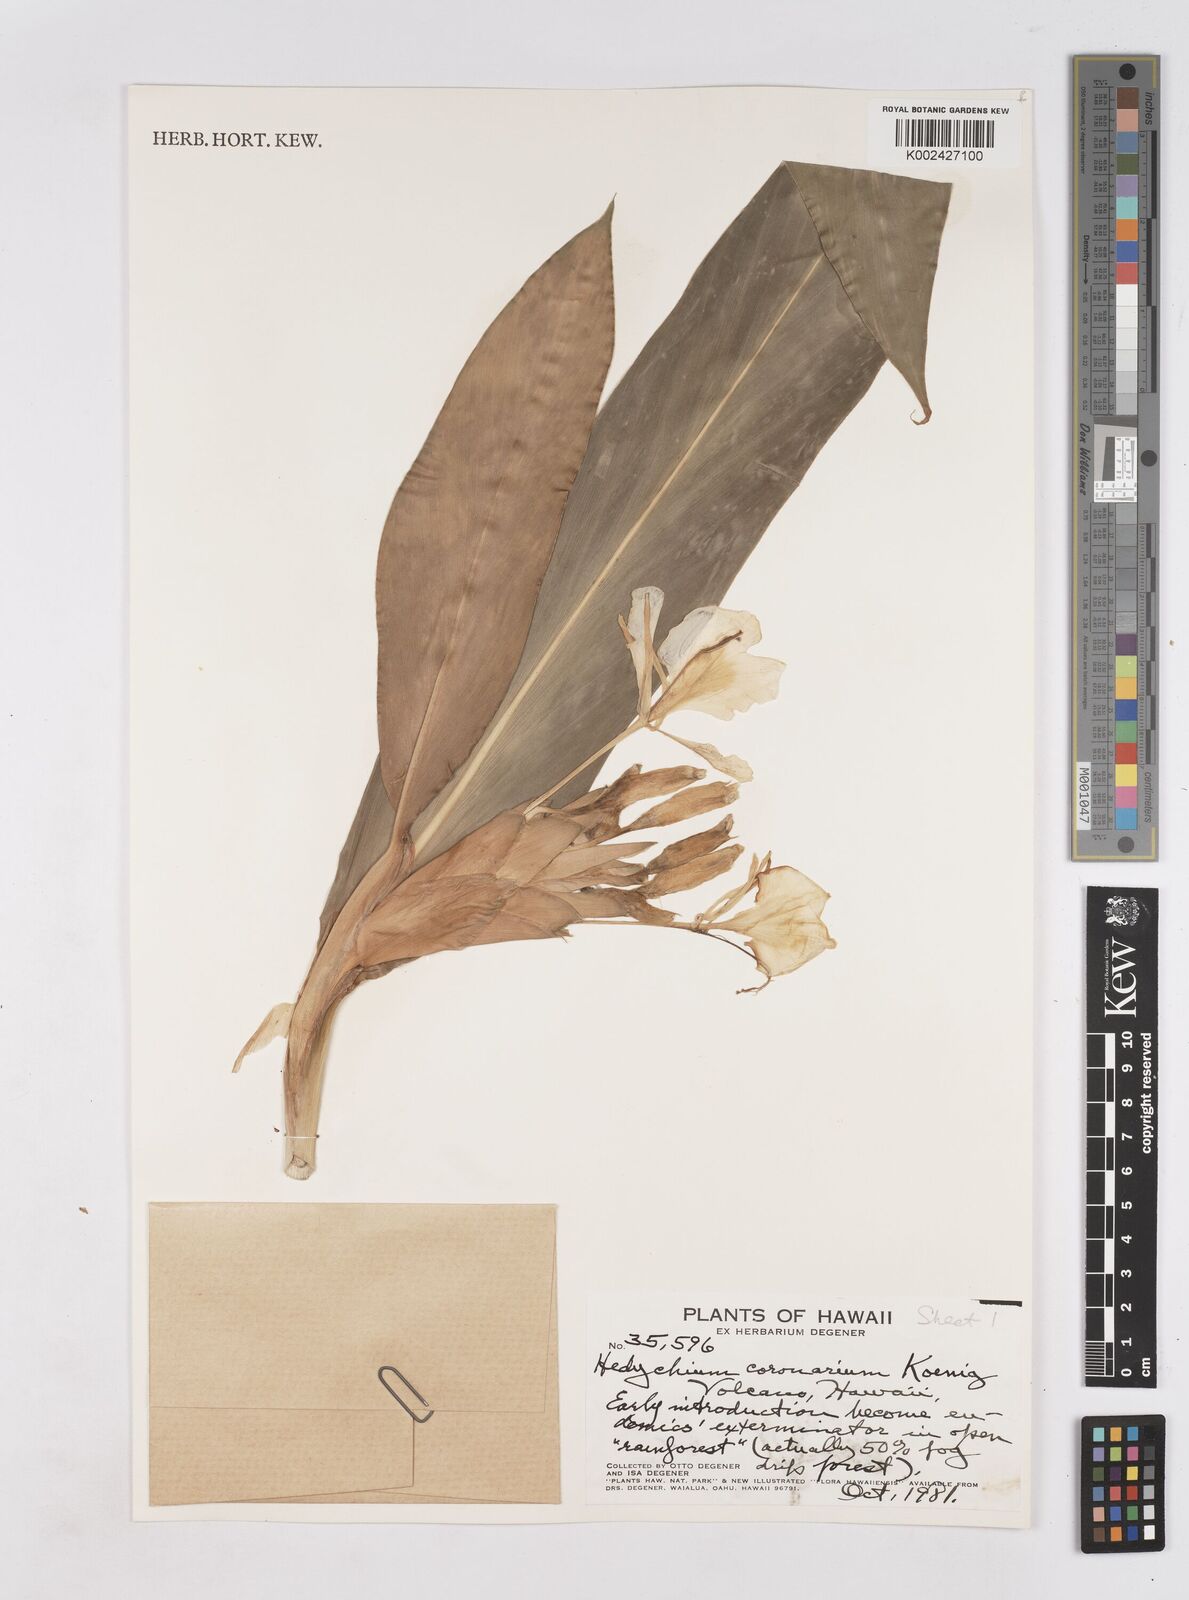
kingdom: Plantae
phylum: Tracheophyta
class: Liliopsida
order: Zingiberales
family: Zingiberaceae
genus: Hedychium
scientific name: Hedychium coronarium
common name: White garland-lily
